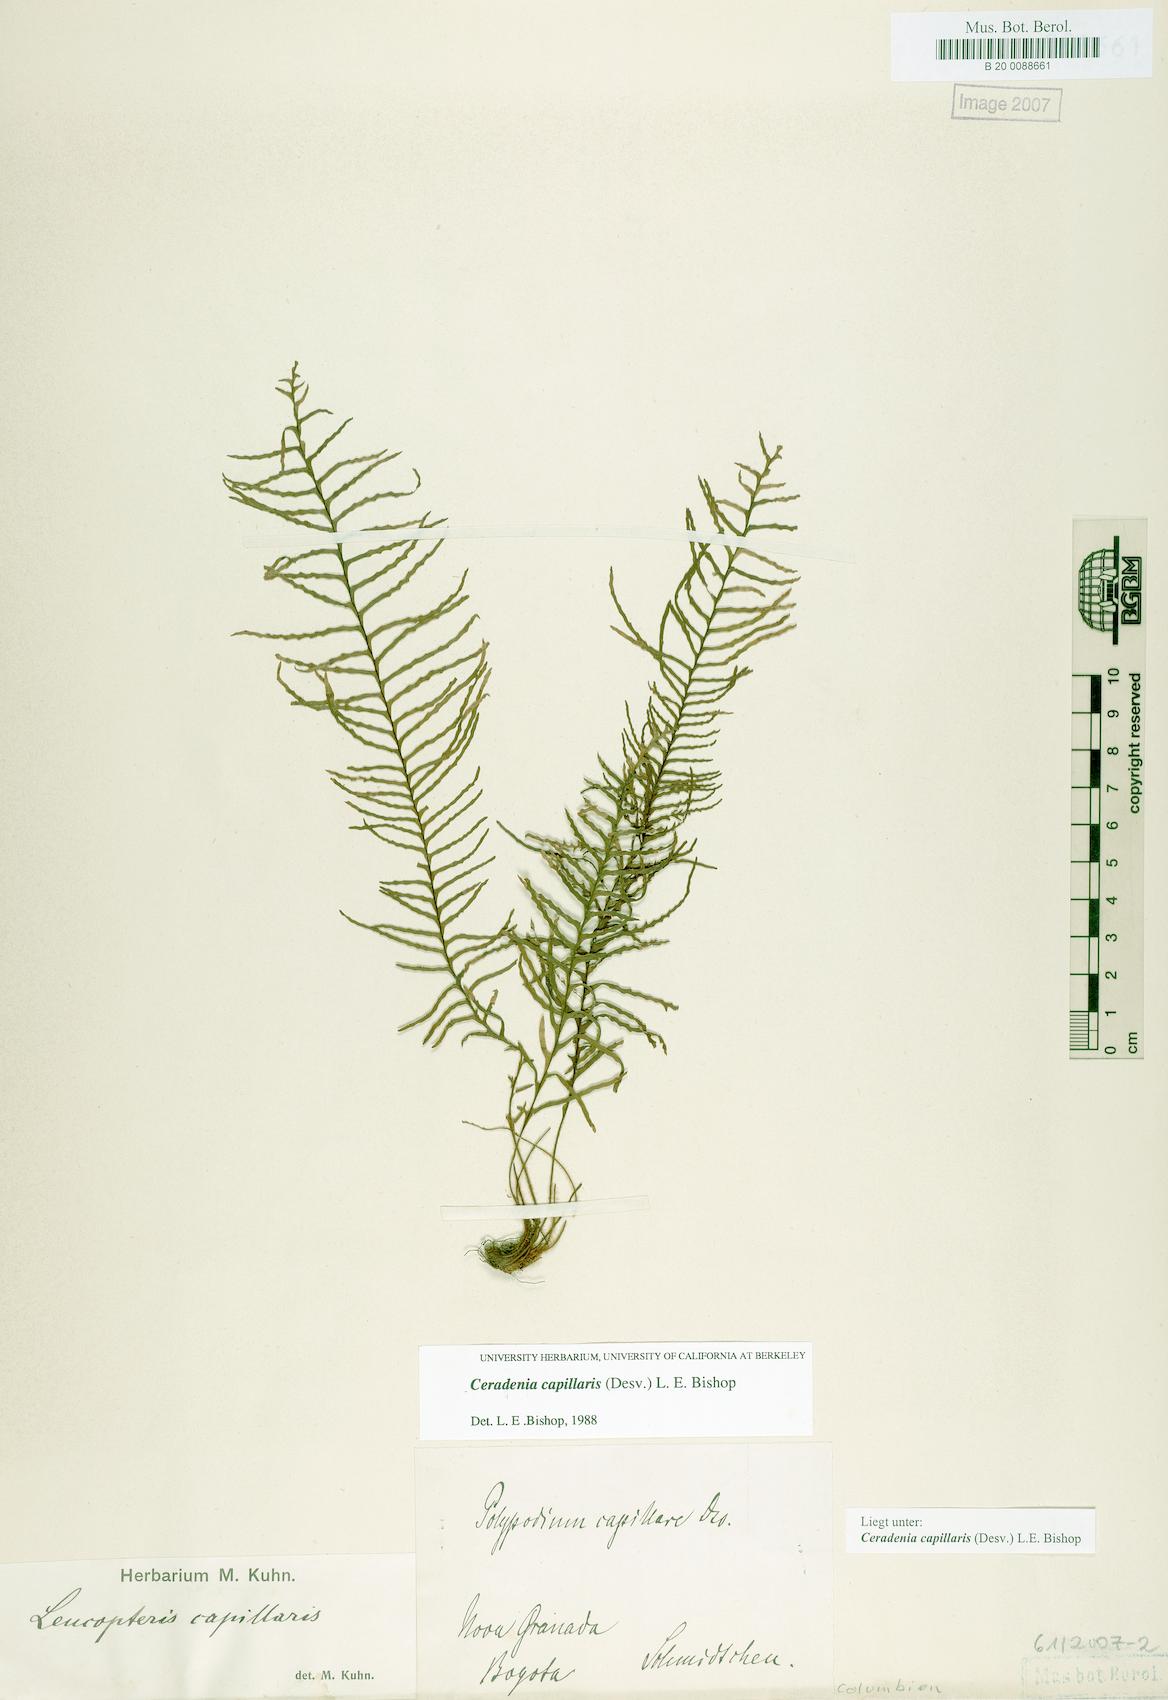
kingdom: Plantae
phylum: Tracheophyta
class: Polypodiopsida
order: Polypodiales
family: Polypodiaceae
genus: Ceradenia
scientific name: Ceradenia capillaris
